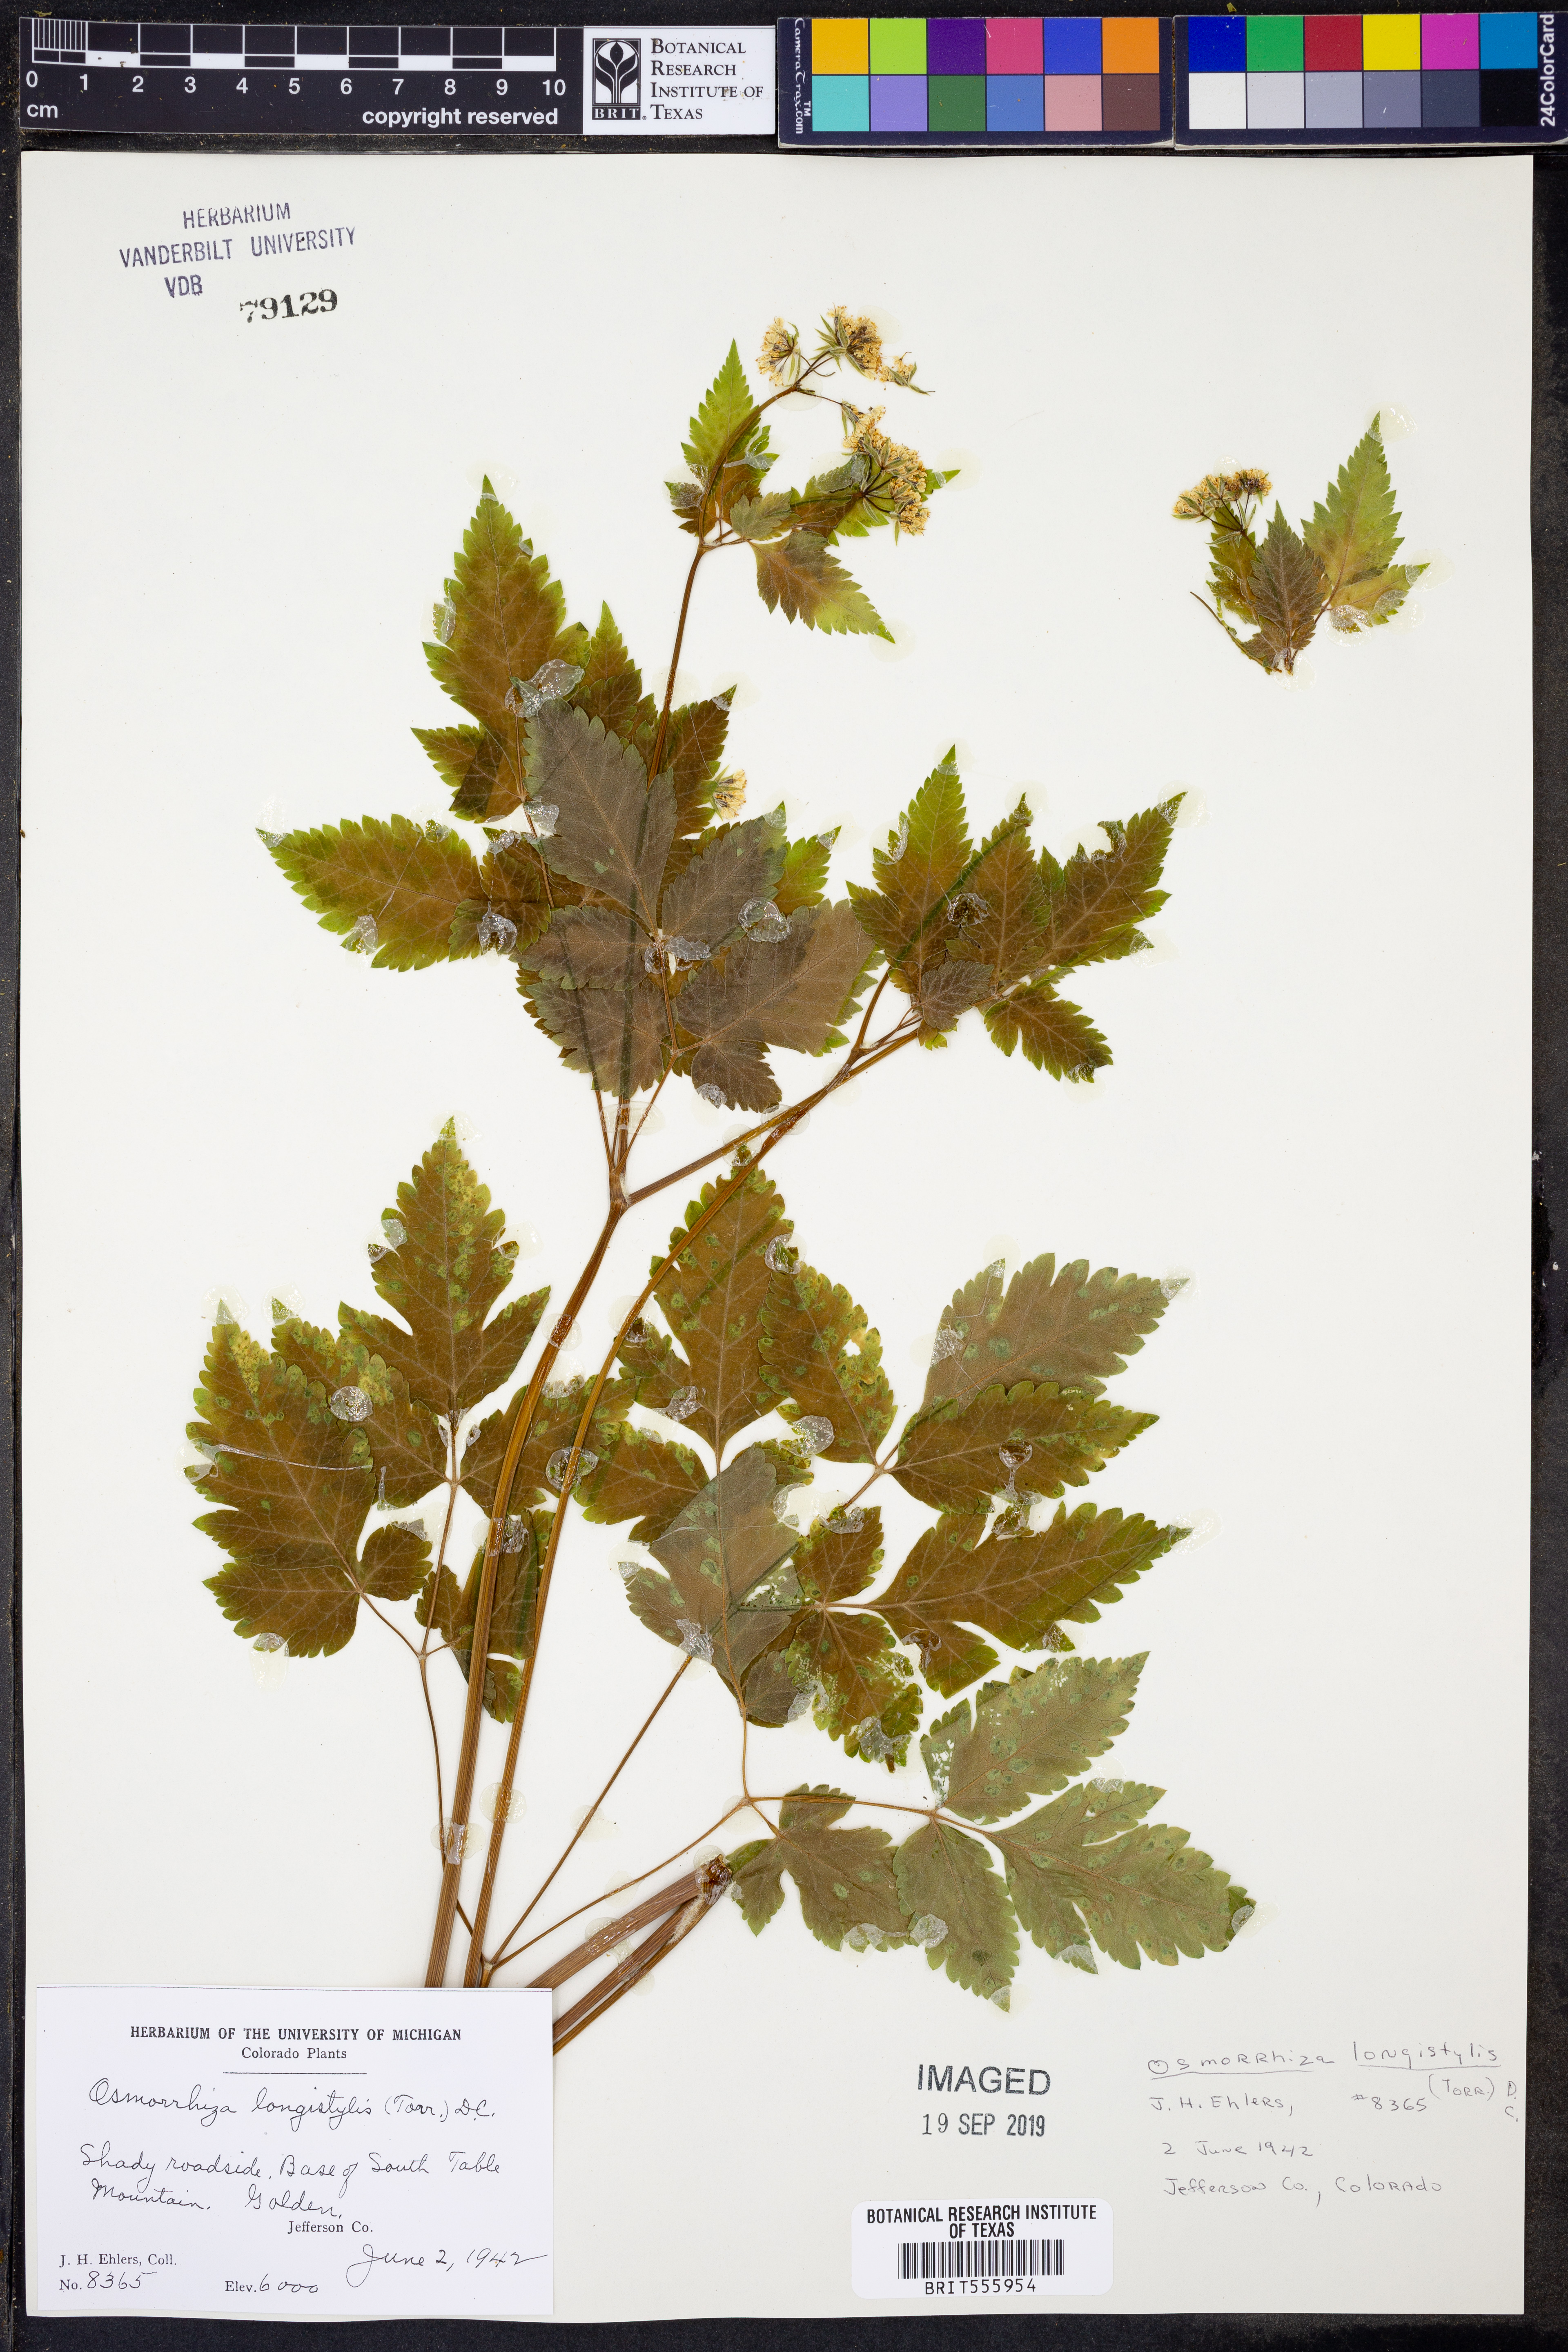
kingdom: Plantae
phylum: Tracheophyta
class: Magnoliopsida
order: Apiales
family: Apiaceae
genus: Osmorhiza
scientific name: Osmorhiza longistylis
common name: Smooth sweet cicely
